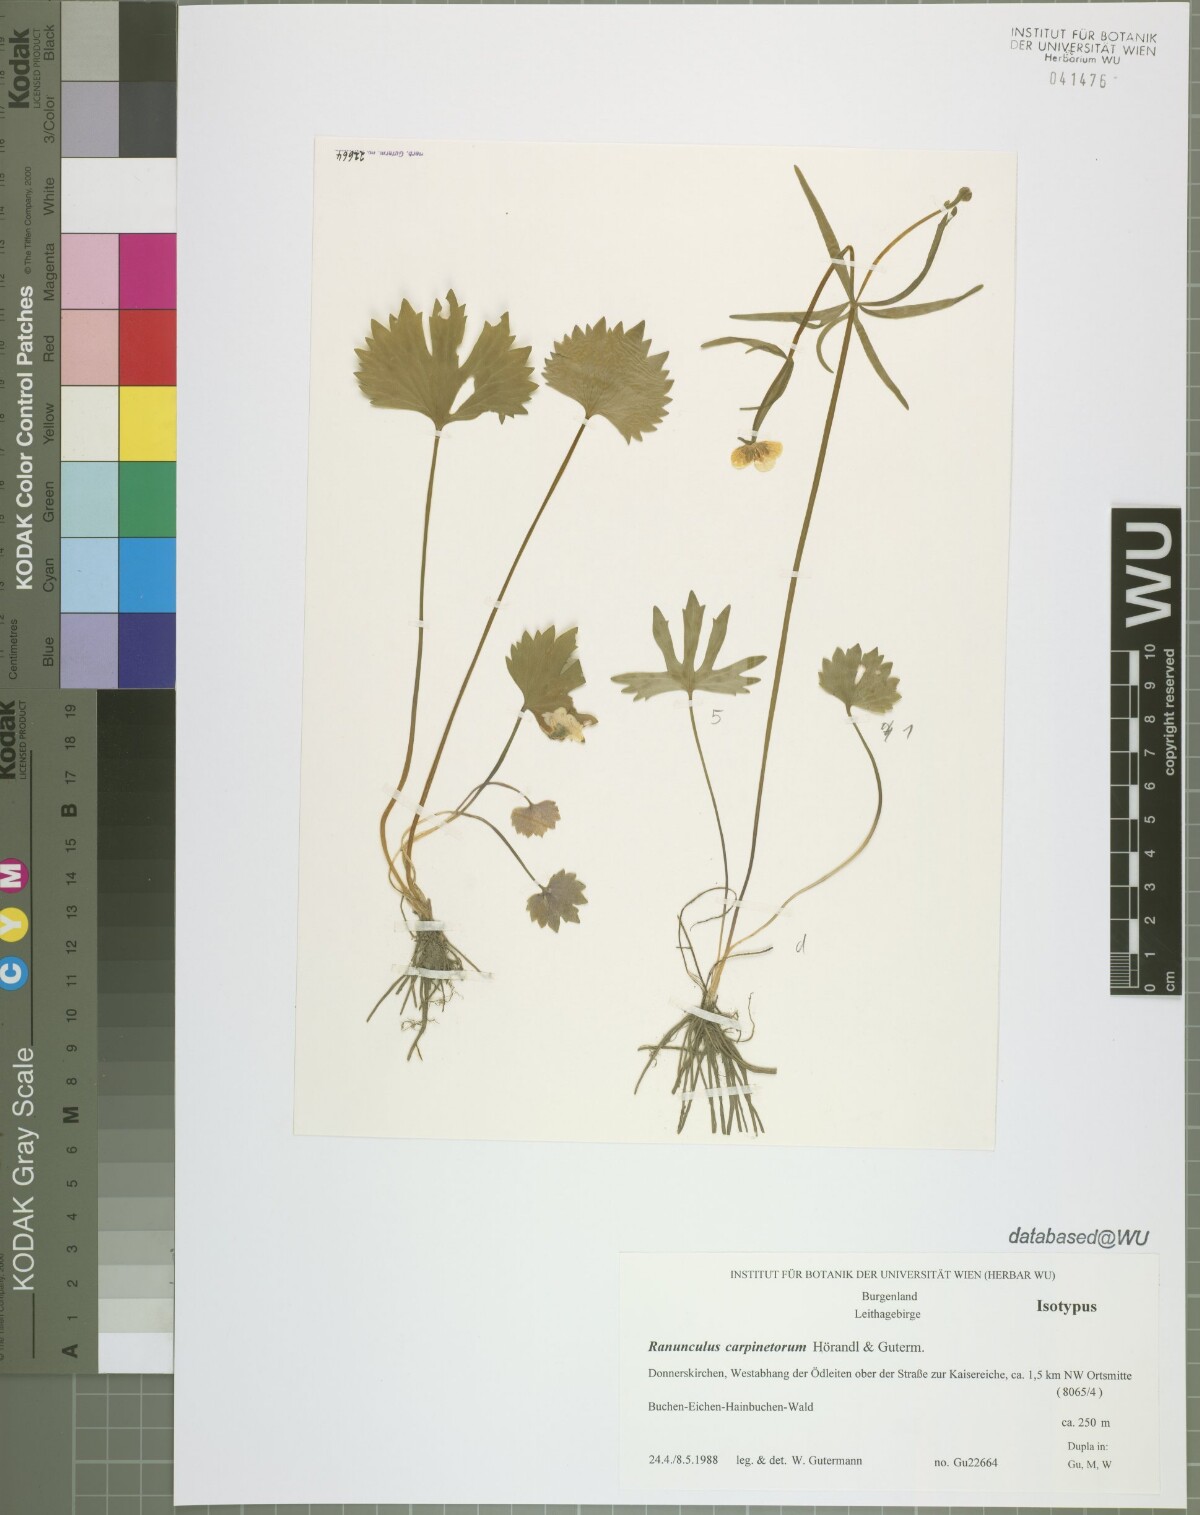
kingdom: Plantae
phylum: Tracheophyta
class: Magnoliopsida
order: Ranunculales
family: Ranunculaceae
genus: Ranunculus
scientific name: Ranunculus carpinetorum
